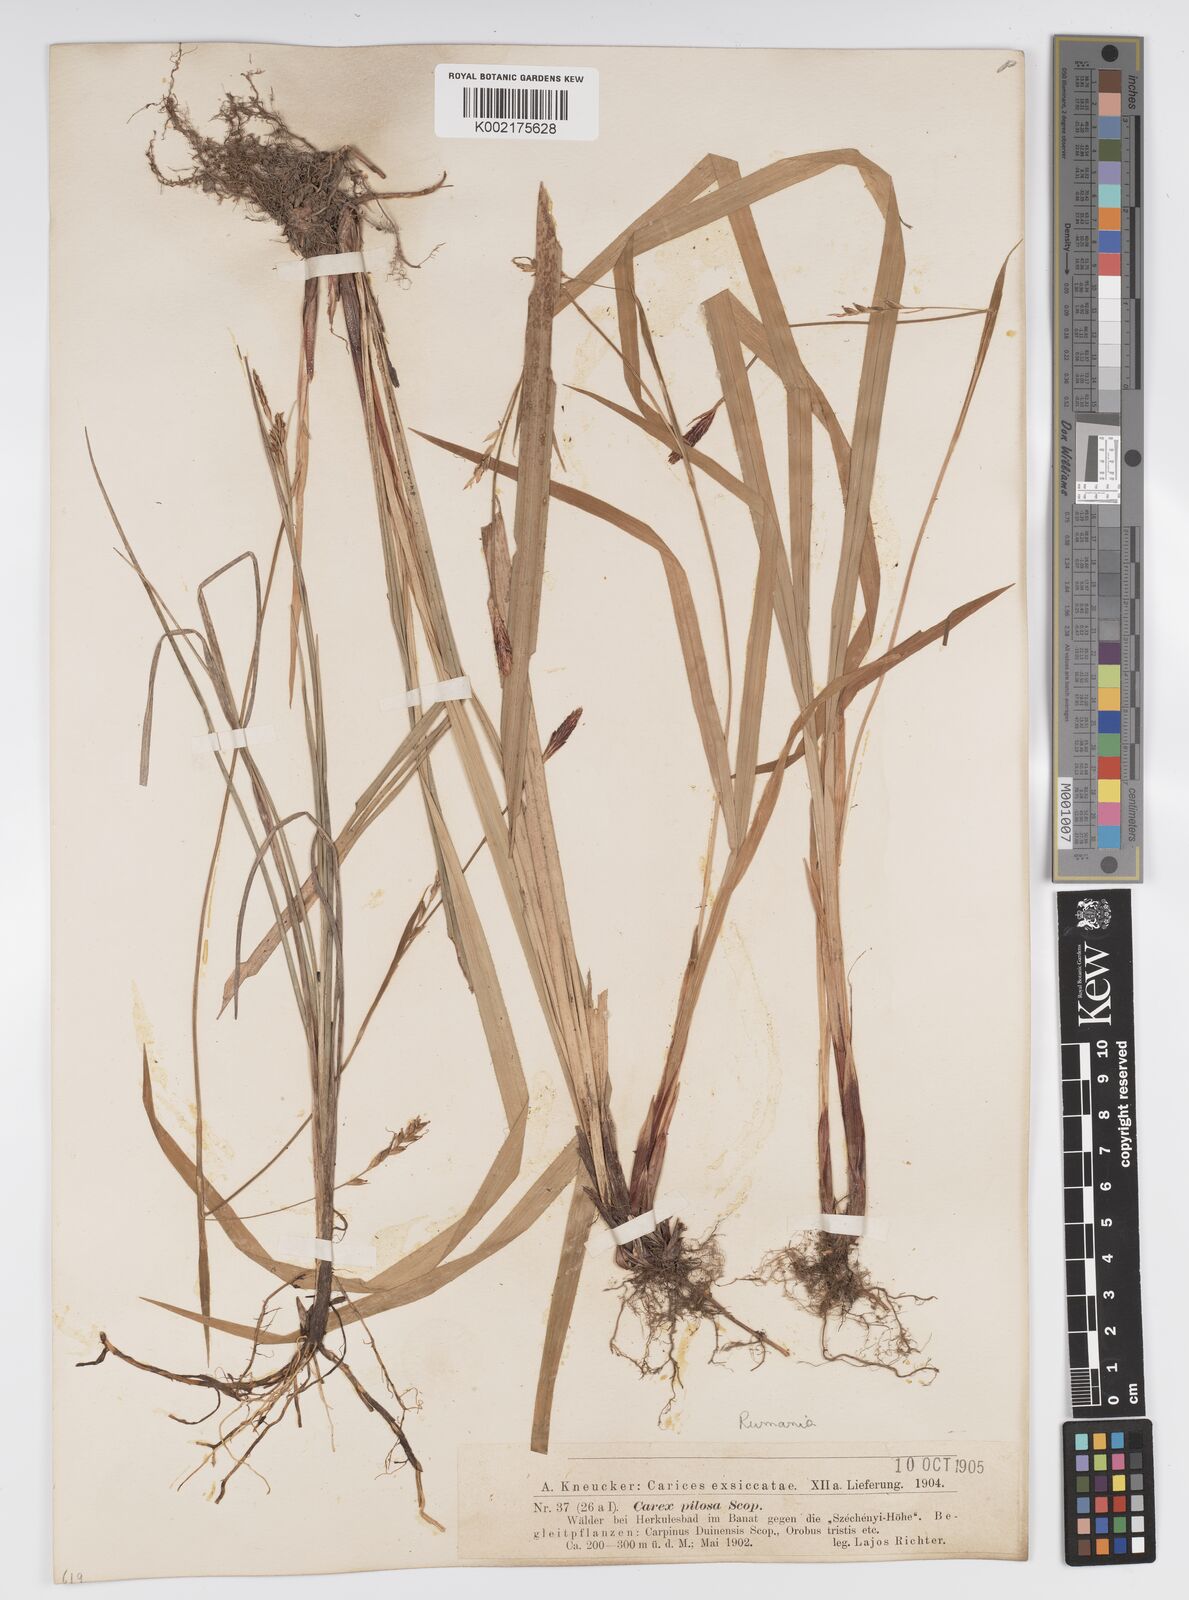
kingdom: Plantae
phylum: Tracheophyta
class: Liliopsida
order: Poales
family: Cyperaceae
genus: Carex
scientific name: Carex pilosa
